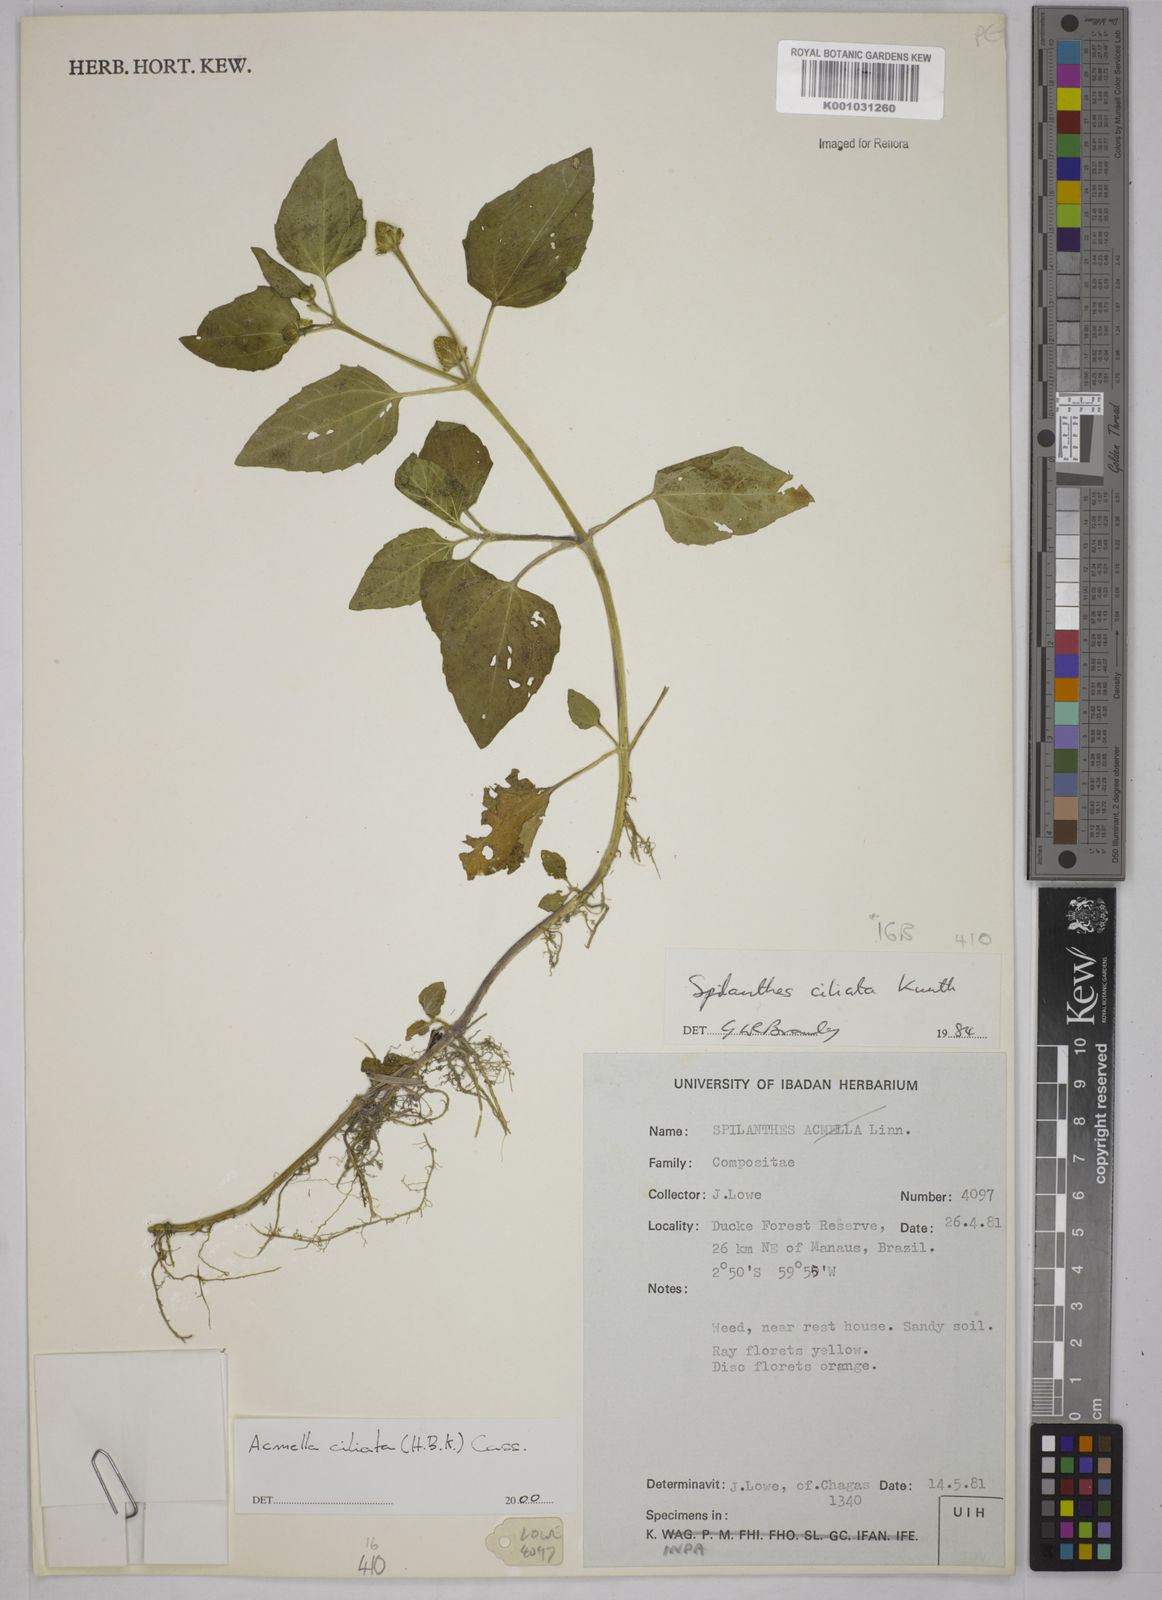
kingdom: Plantae
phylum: Tracheophyta
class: Magnoliopsida
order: Asterales
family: Asteraceae
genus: Acmella
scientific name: Acmella ciliata
